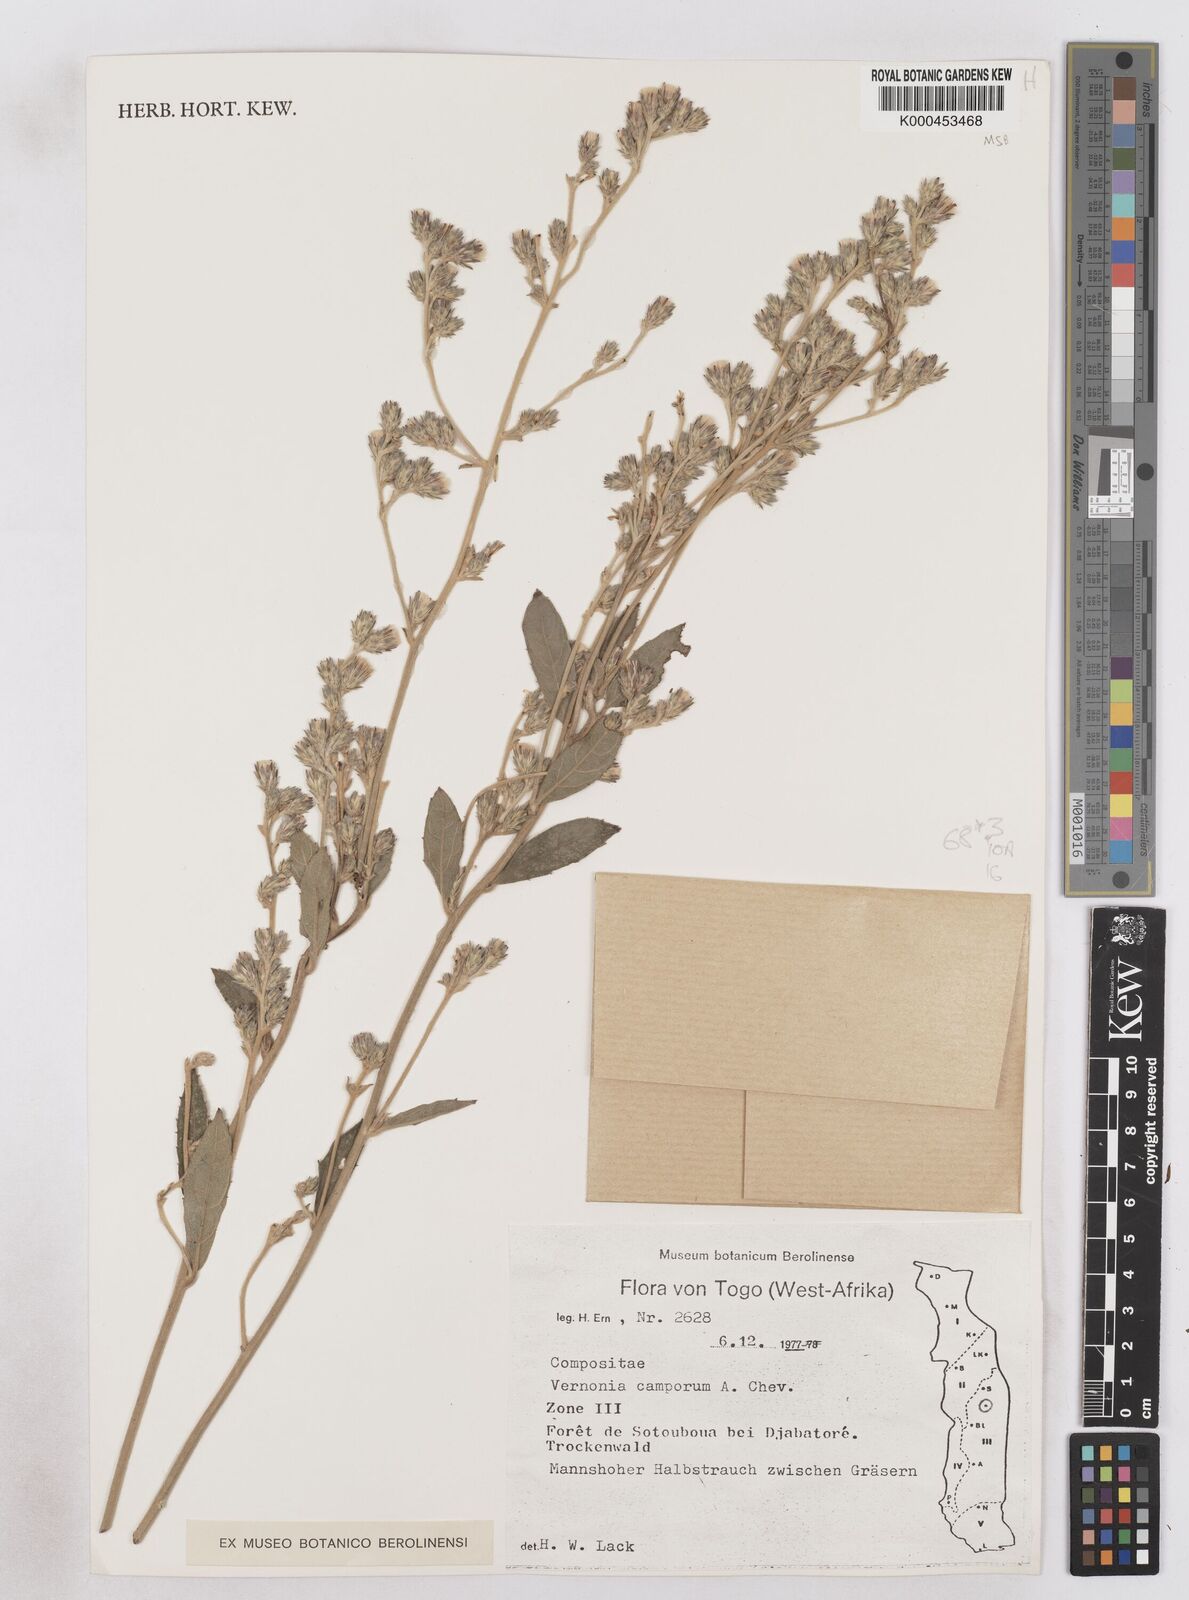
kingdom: Plantae
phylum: Tracheophyta
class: Magnoliopsida
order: Asterales
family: Asteraceae
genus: Vernoniastrum
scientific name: Vernoniastrum camporum
